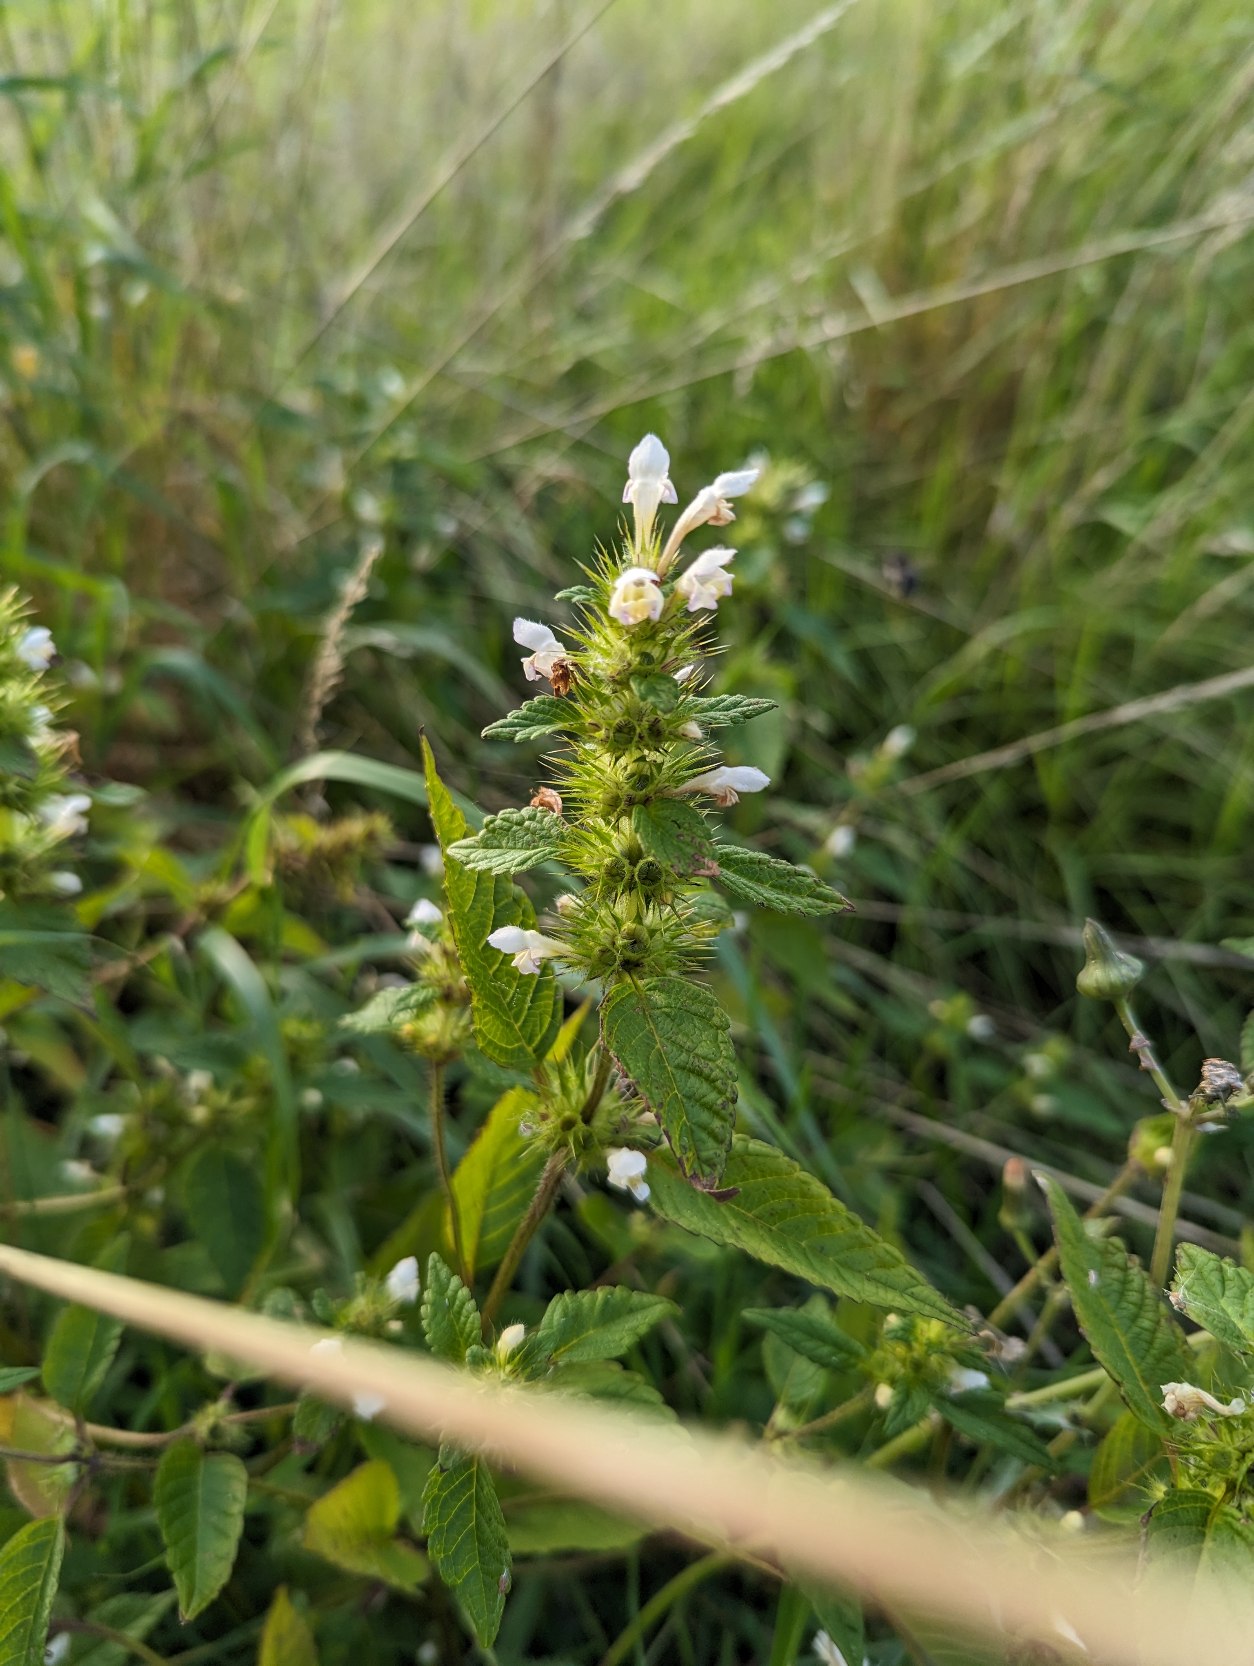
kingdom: Plantae
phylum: Tracheophyta
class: Magnoliopsida
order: Lamiales
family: Lamiaceae
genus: Galeopsis
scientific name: Galeopsis tetrahit
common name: Almindelig hanekro
